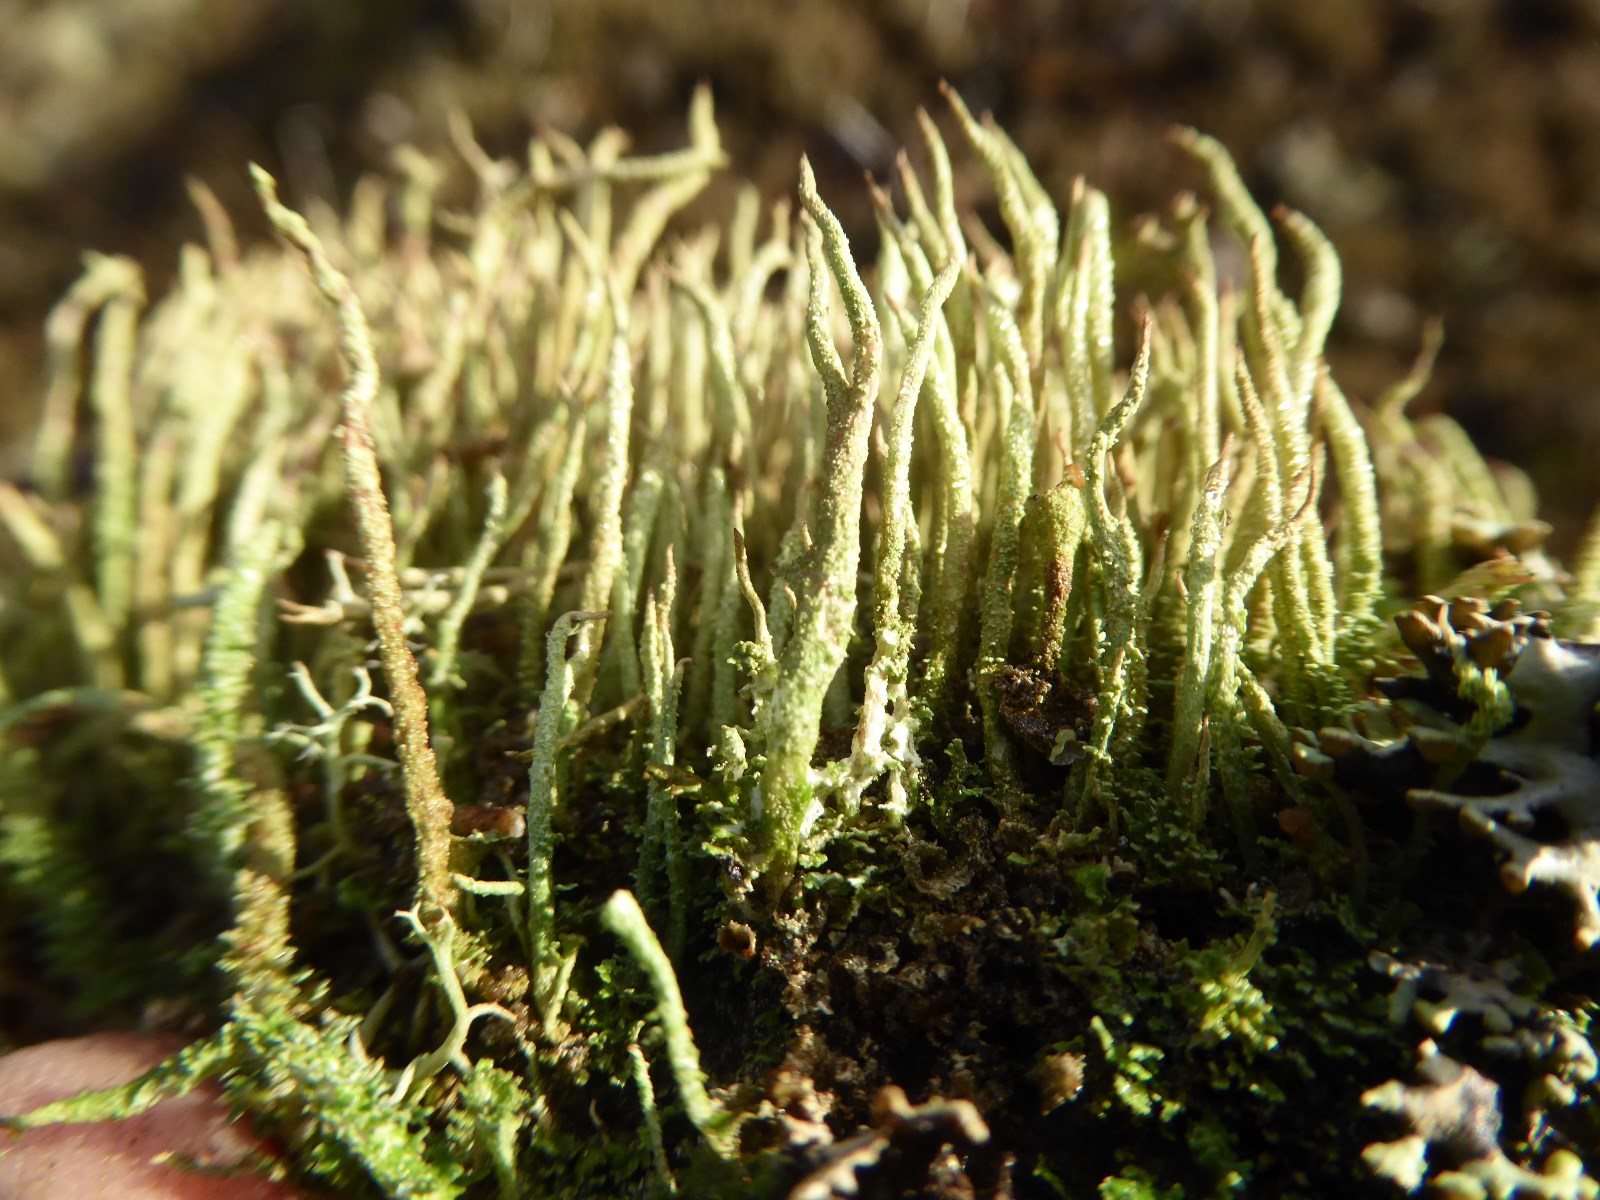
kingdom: Fungi
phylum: Ascomycota
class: Lecanoromycetes
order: Lecanorales
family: Cladoniaceae
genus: Cladonia
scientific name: Cladonia glauca
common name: grågrøn bægerlav
